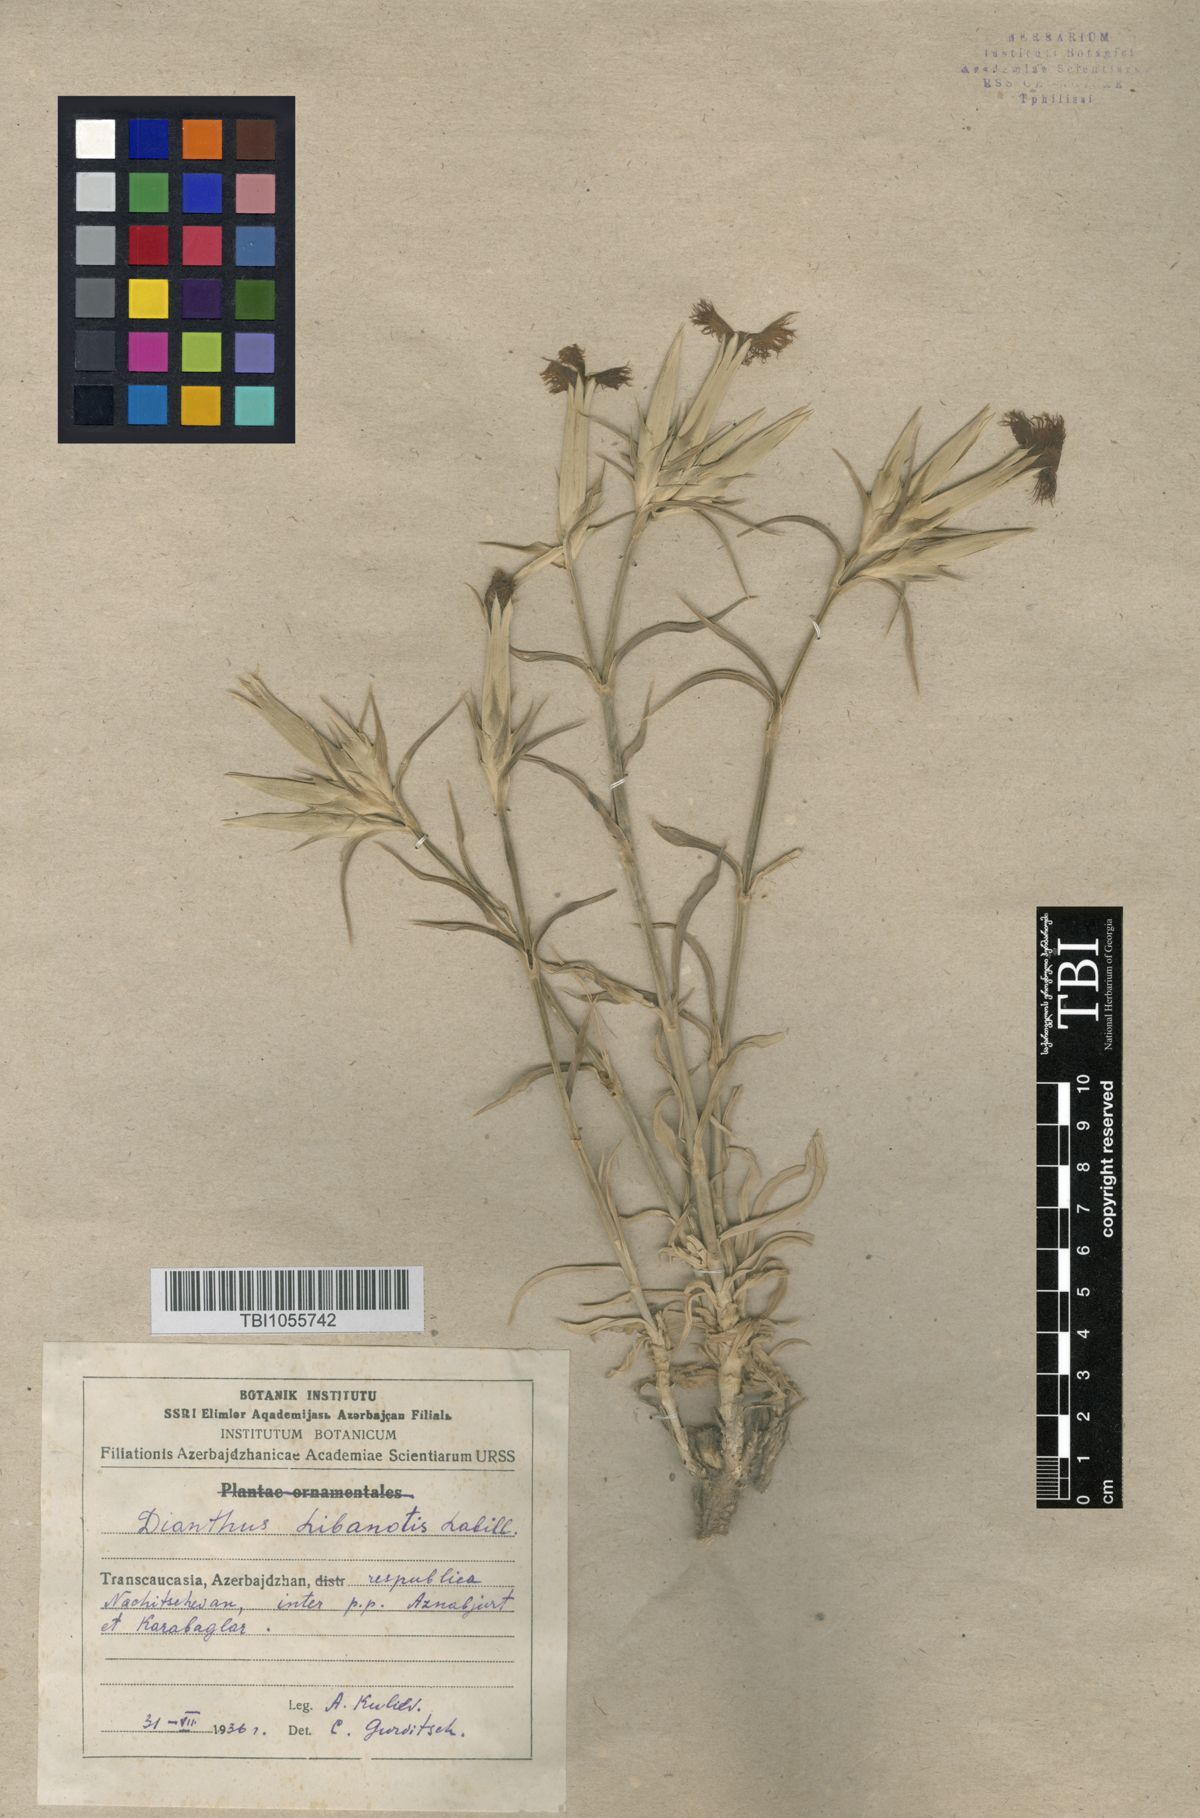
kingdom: Plantae
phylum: Tracheophyta
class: Magnoliopsida
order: Caryophyllales
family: Caryophyllaceae
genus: Dianthus
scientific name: Dianthus libanotis
